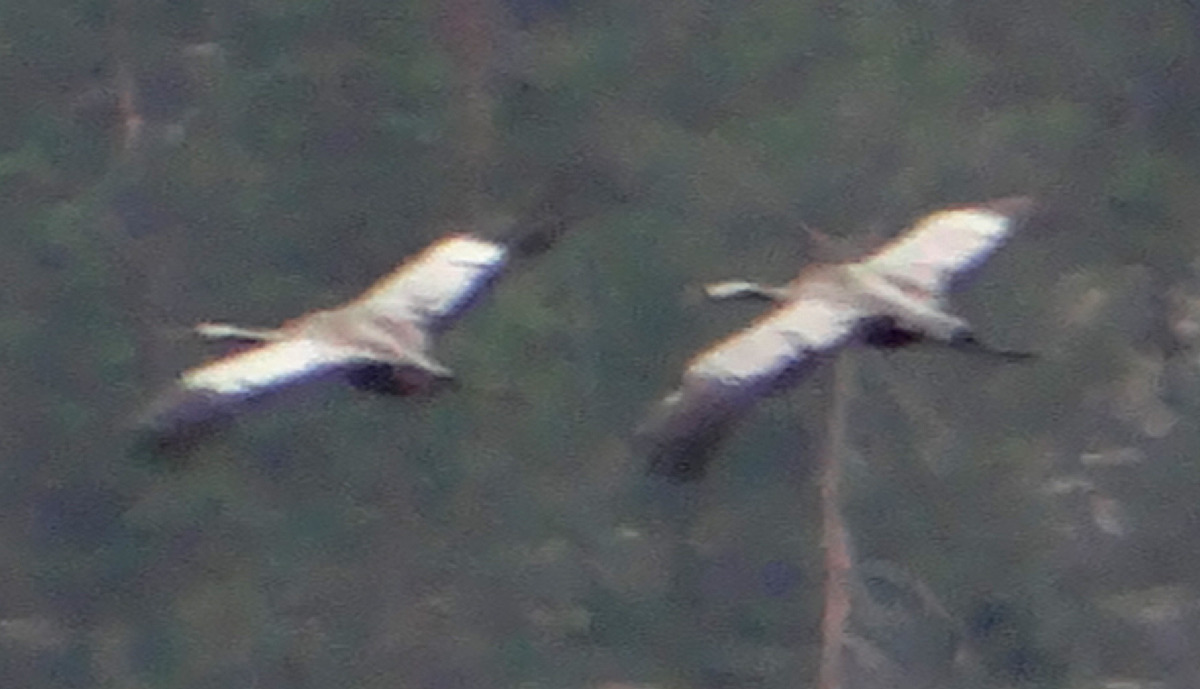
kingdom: Animalia
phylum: Chordata
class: Aves
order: Gruiformes
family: Gruidae
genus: Grus
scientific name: Grus grus
